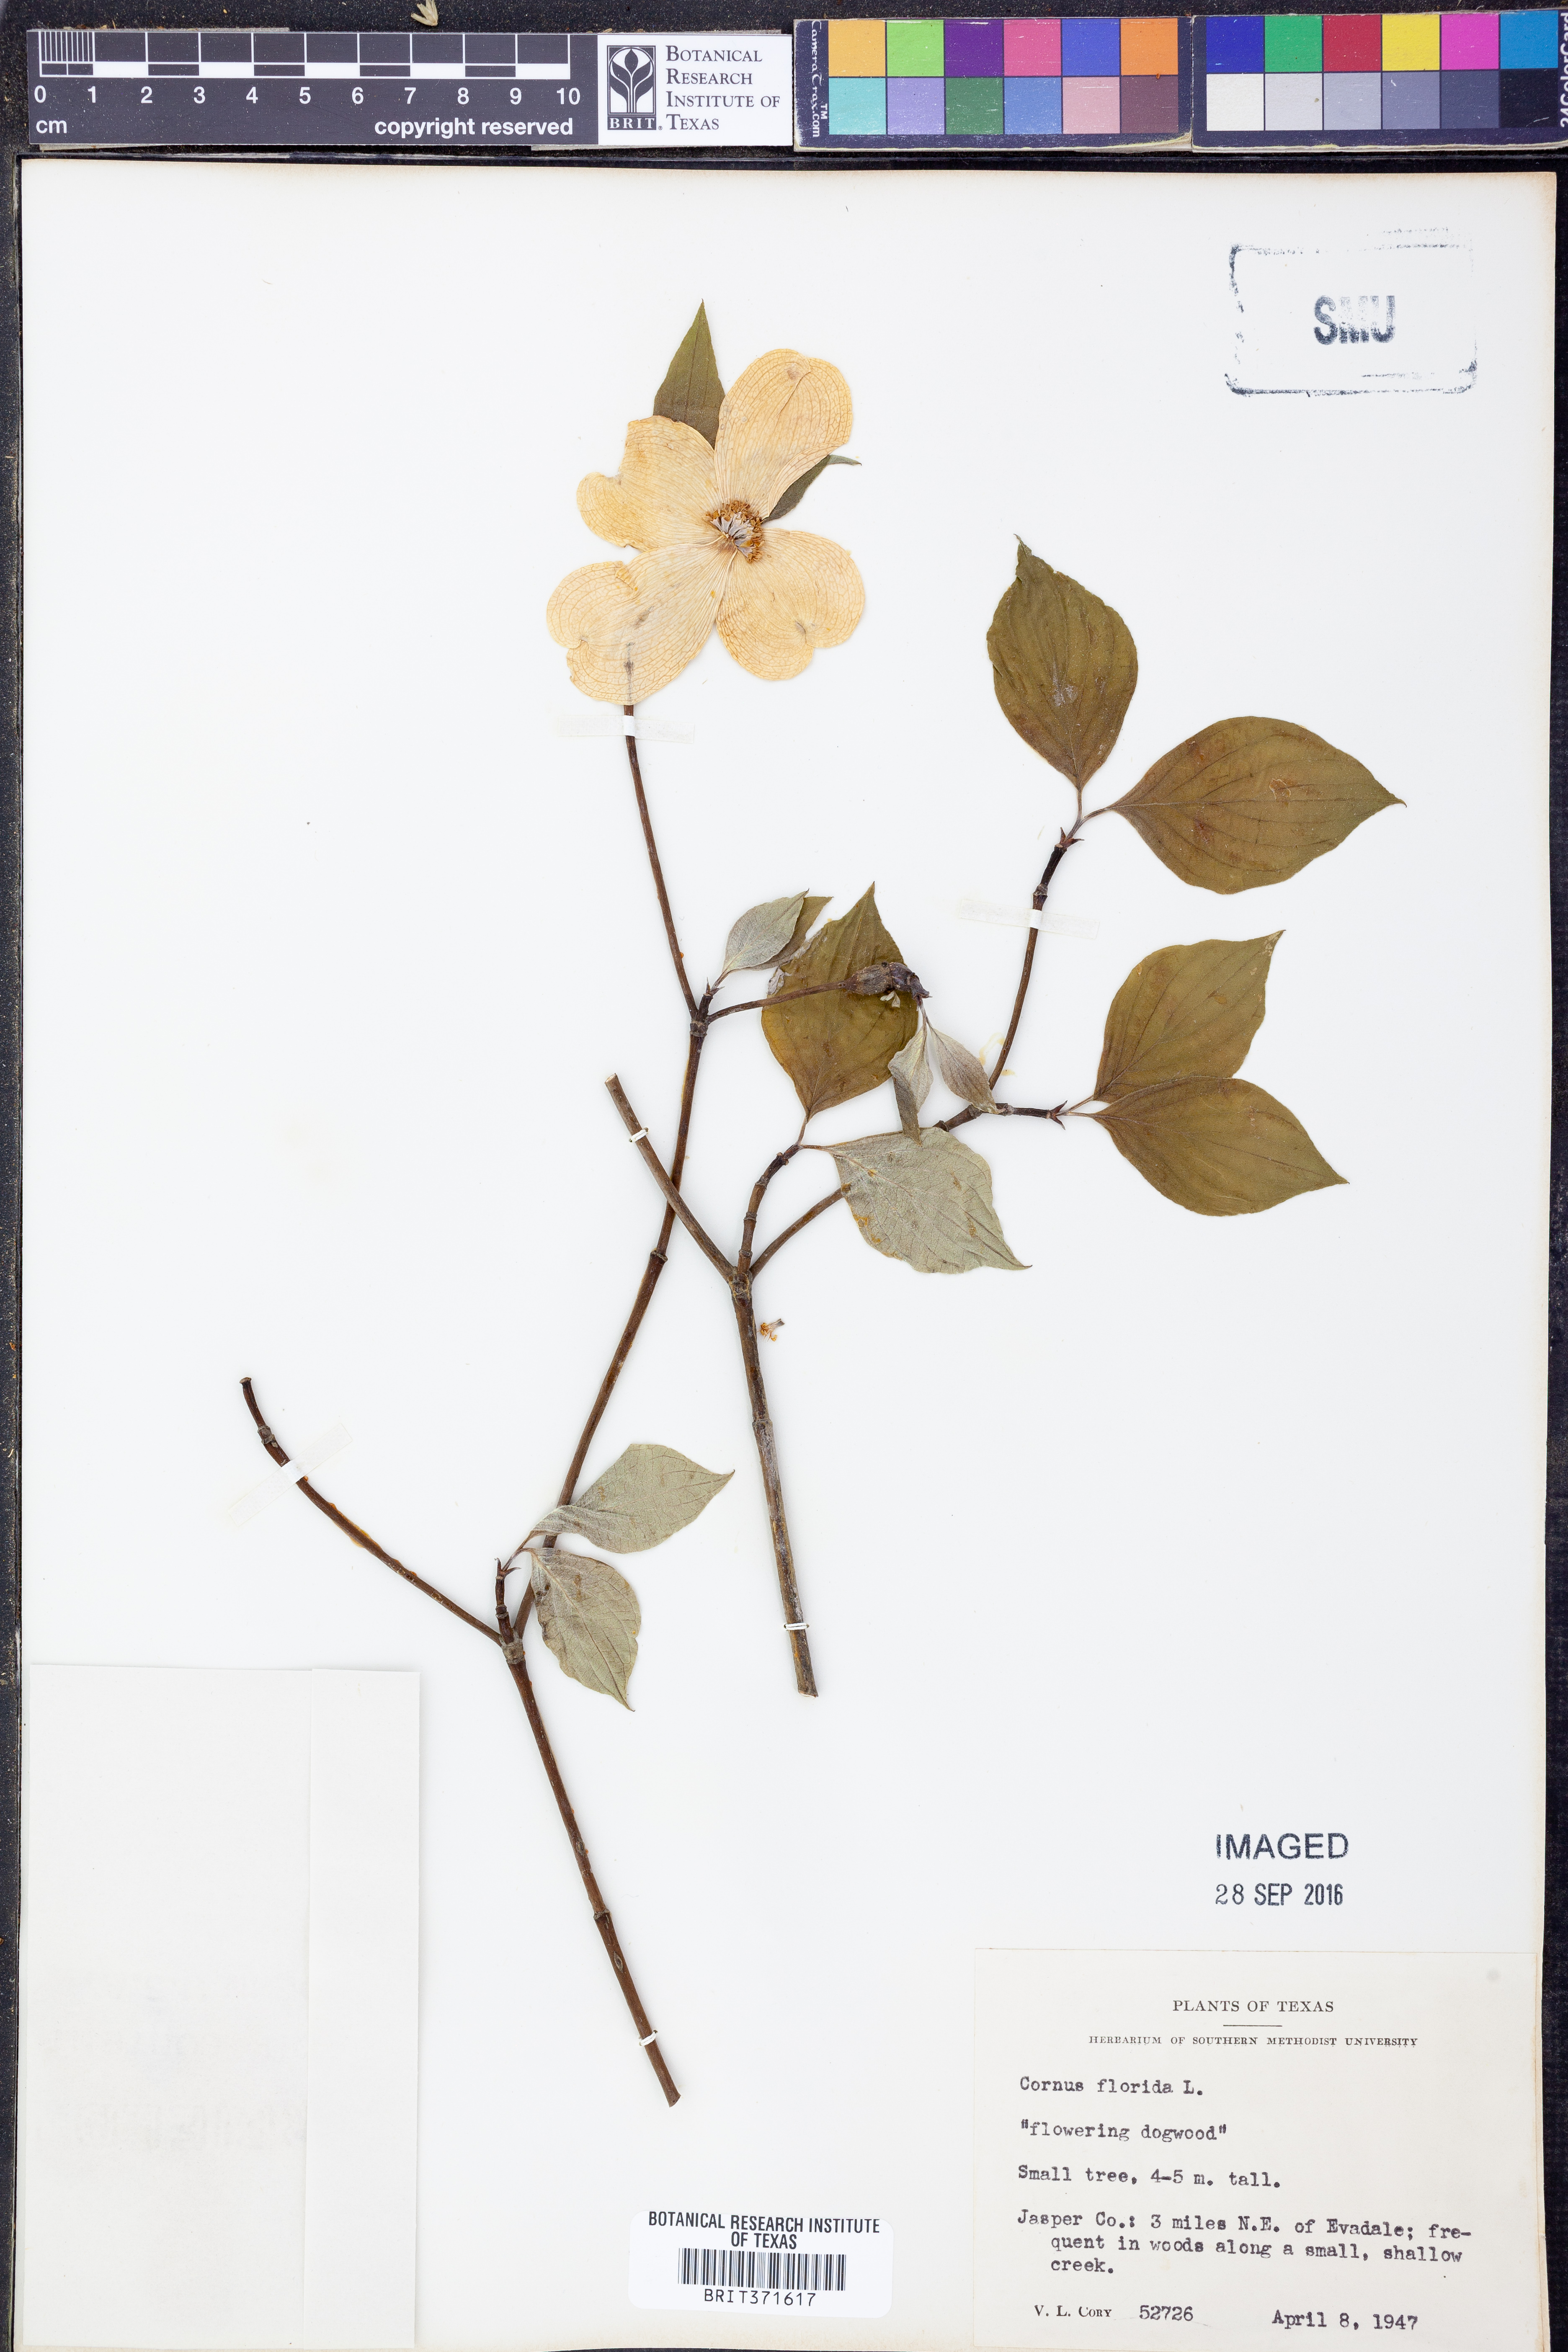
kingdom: Plantae
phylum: Tracheophyta
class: Magnoliopsida
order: Cornales
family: Cornaceae
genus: Cornus
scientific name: Cornus florida
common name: Flowering dogwood
